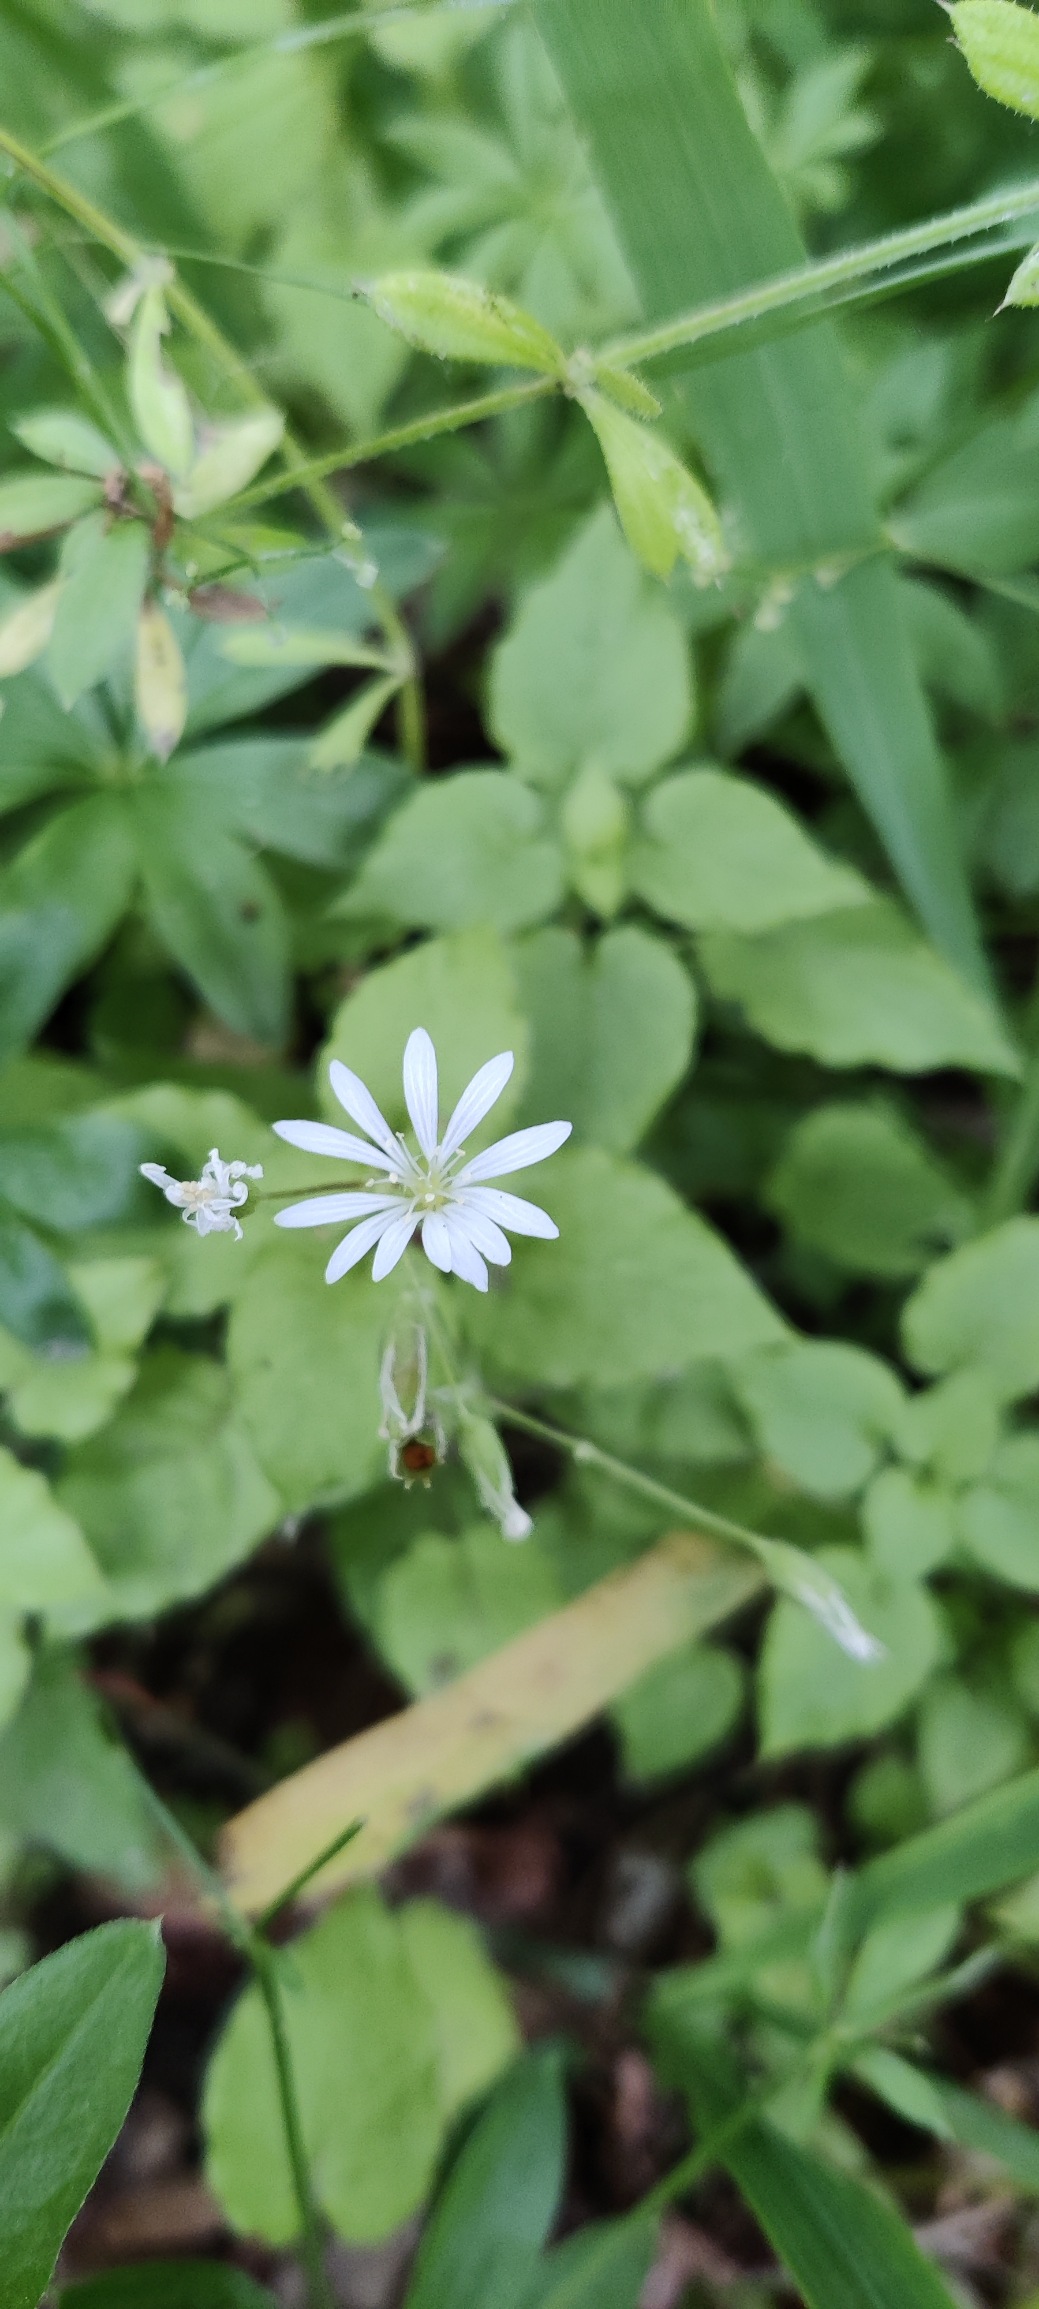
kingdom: Plantae
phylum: Tracheophyta
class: Magnoliopsida
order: Caryophyllales
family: Caryophyllaceae
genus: Stellaria
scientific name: Stellaria nemorum
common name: Lund-fladstjerne
